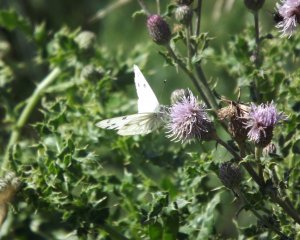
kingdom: Animalia
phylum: Arthropoda
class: Insecta
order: Lepidoptera
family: Pieridae
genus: Pontia
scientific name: Pontia protodice
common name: Checkered White
